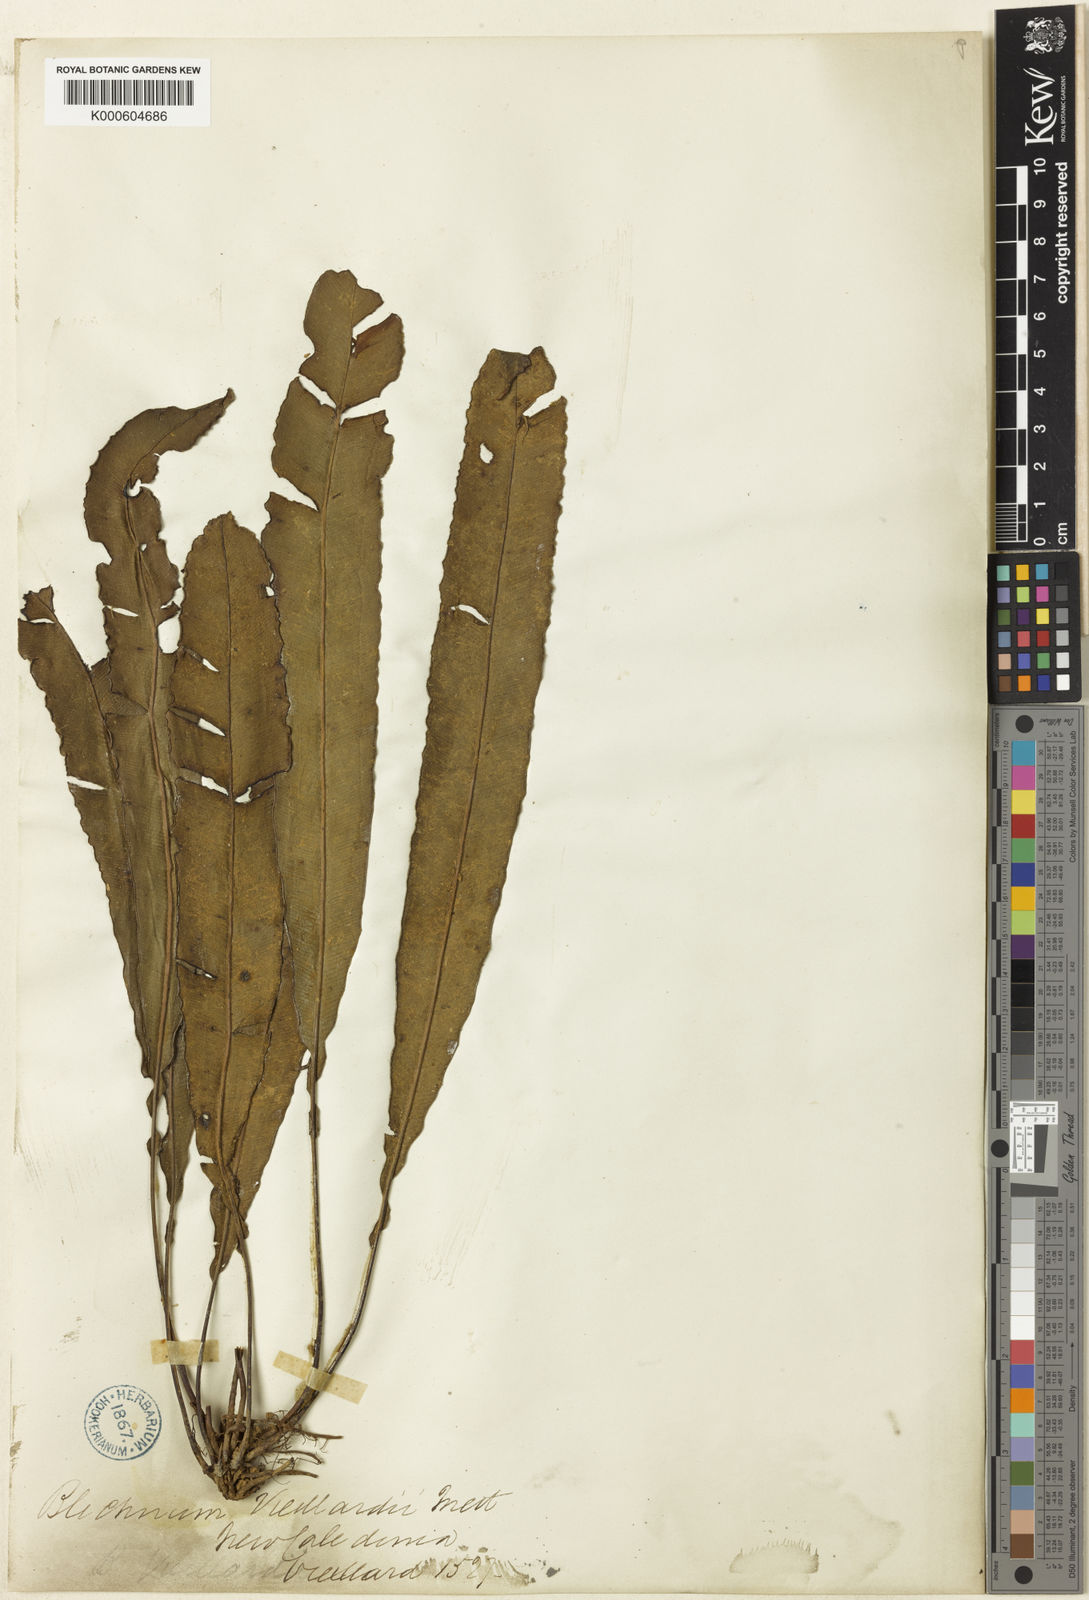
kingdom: Plantae
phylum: Tracheophyta
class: Polypodiopsida
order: Polypodiales
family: Blechnaceae
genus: Austroblechnum
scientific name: Austroblechnum vieillardii
